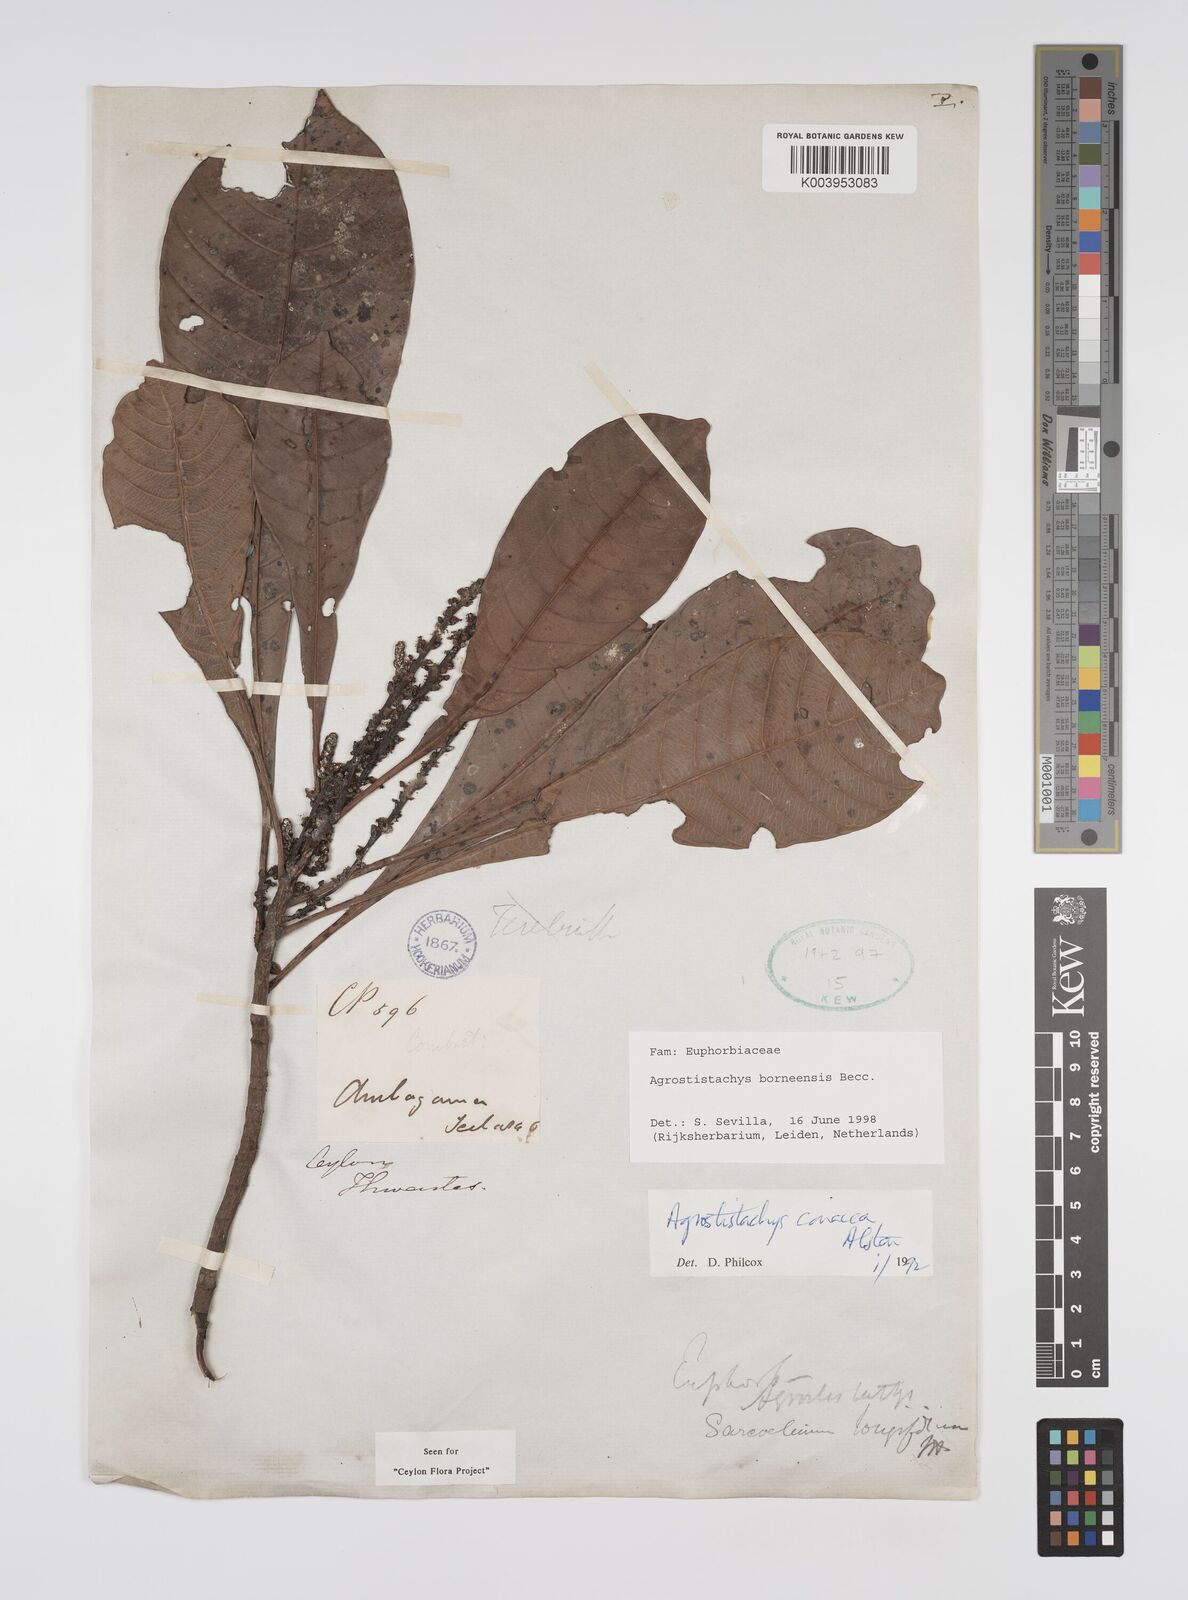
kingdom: Plantae
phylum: Tracheophyta
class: Magnoliopsida
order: Malpighiales
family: Euphorbiaceae
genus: Agrostistachys
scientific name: Agrostistachys borneensis
